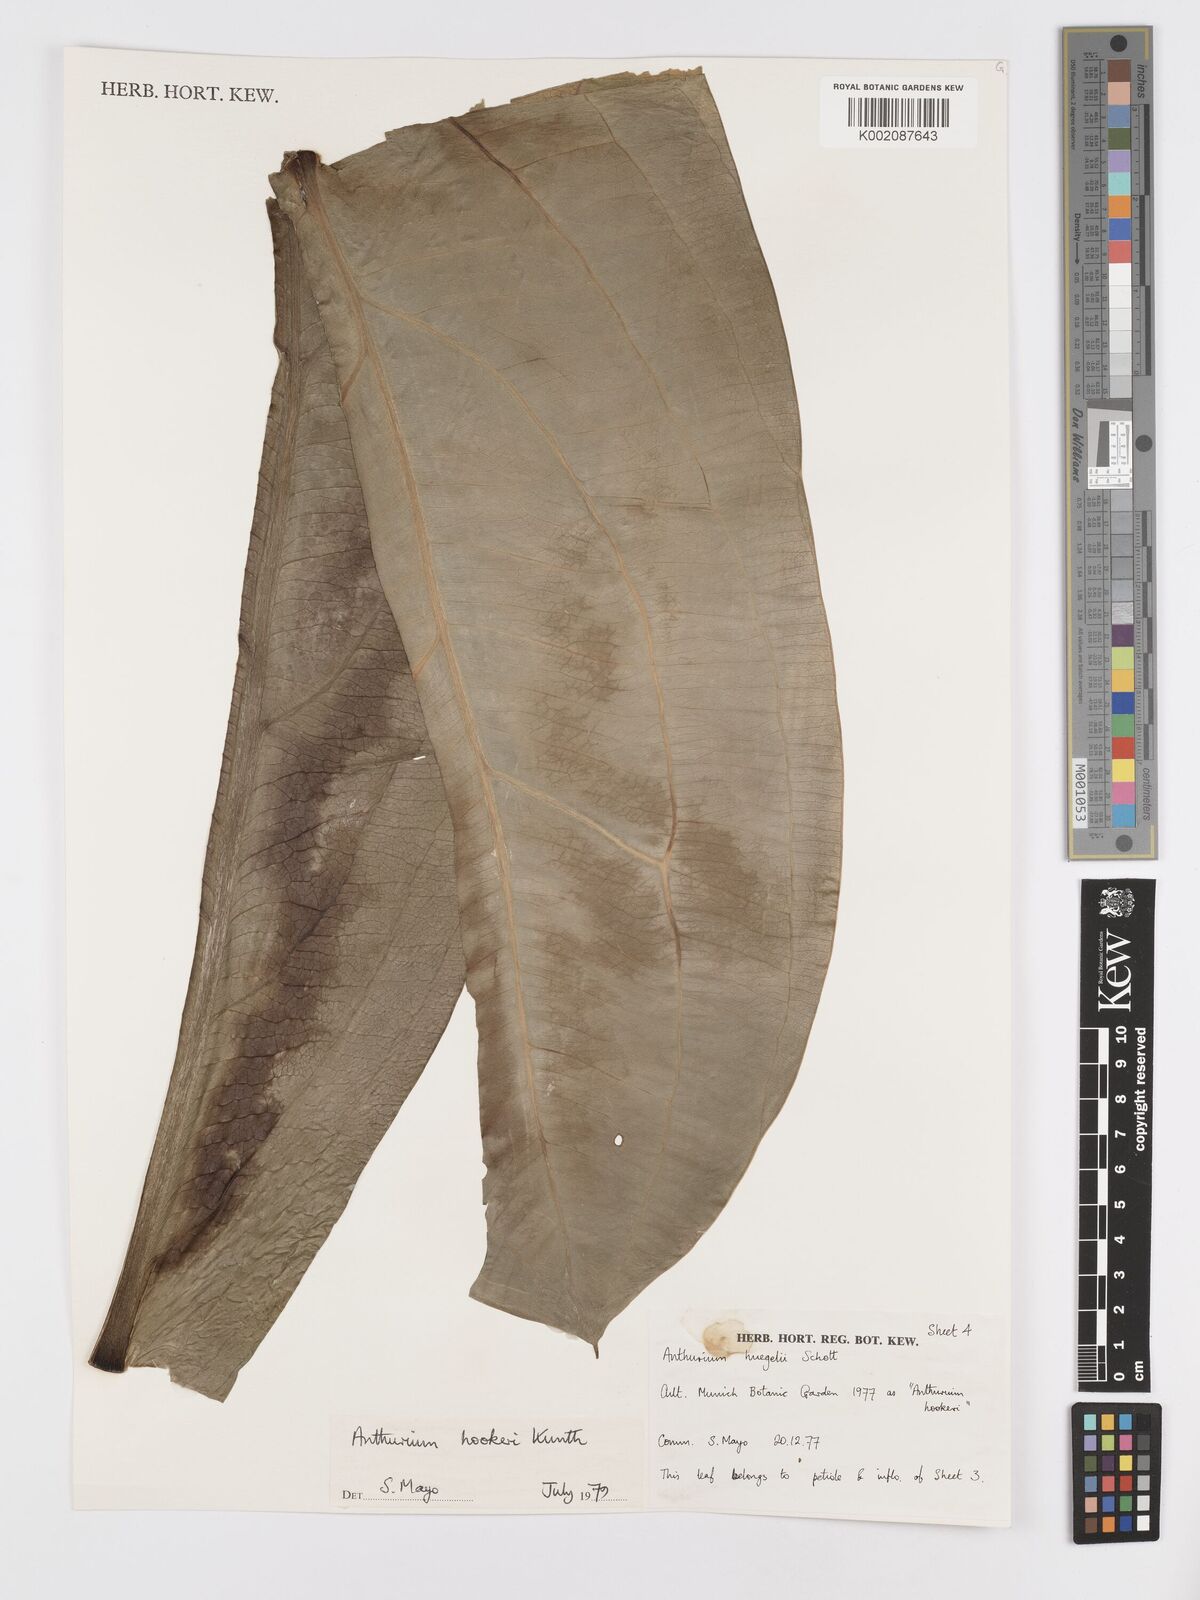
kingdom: Plantae
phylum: Tracheophyta
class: Liliopsida
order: Alismatales
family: Araceae
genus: Anthurium
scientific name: Anthurium hookeri
